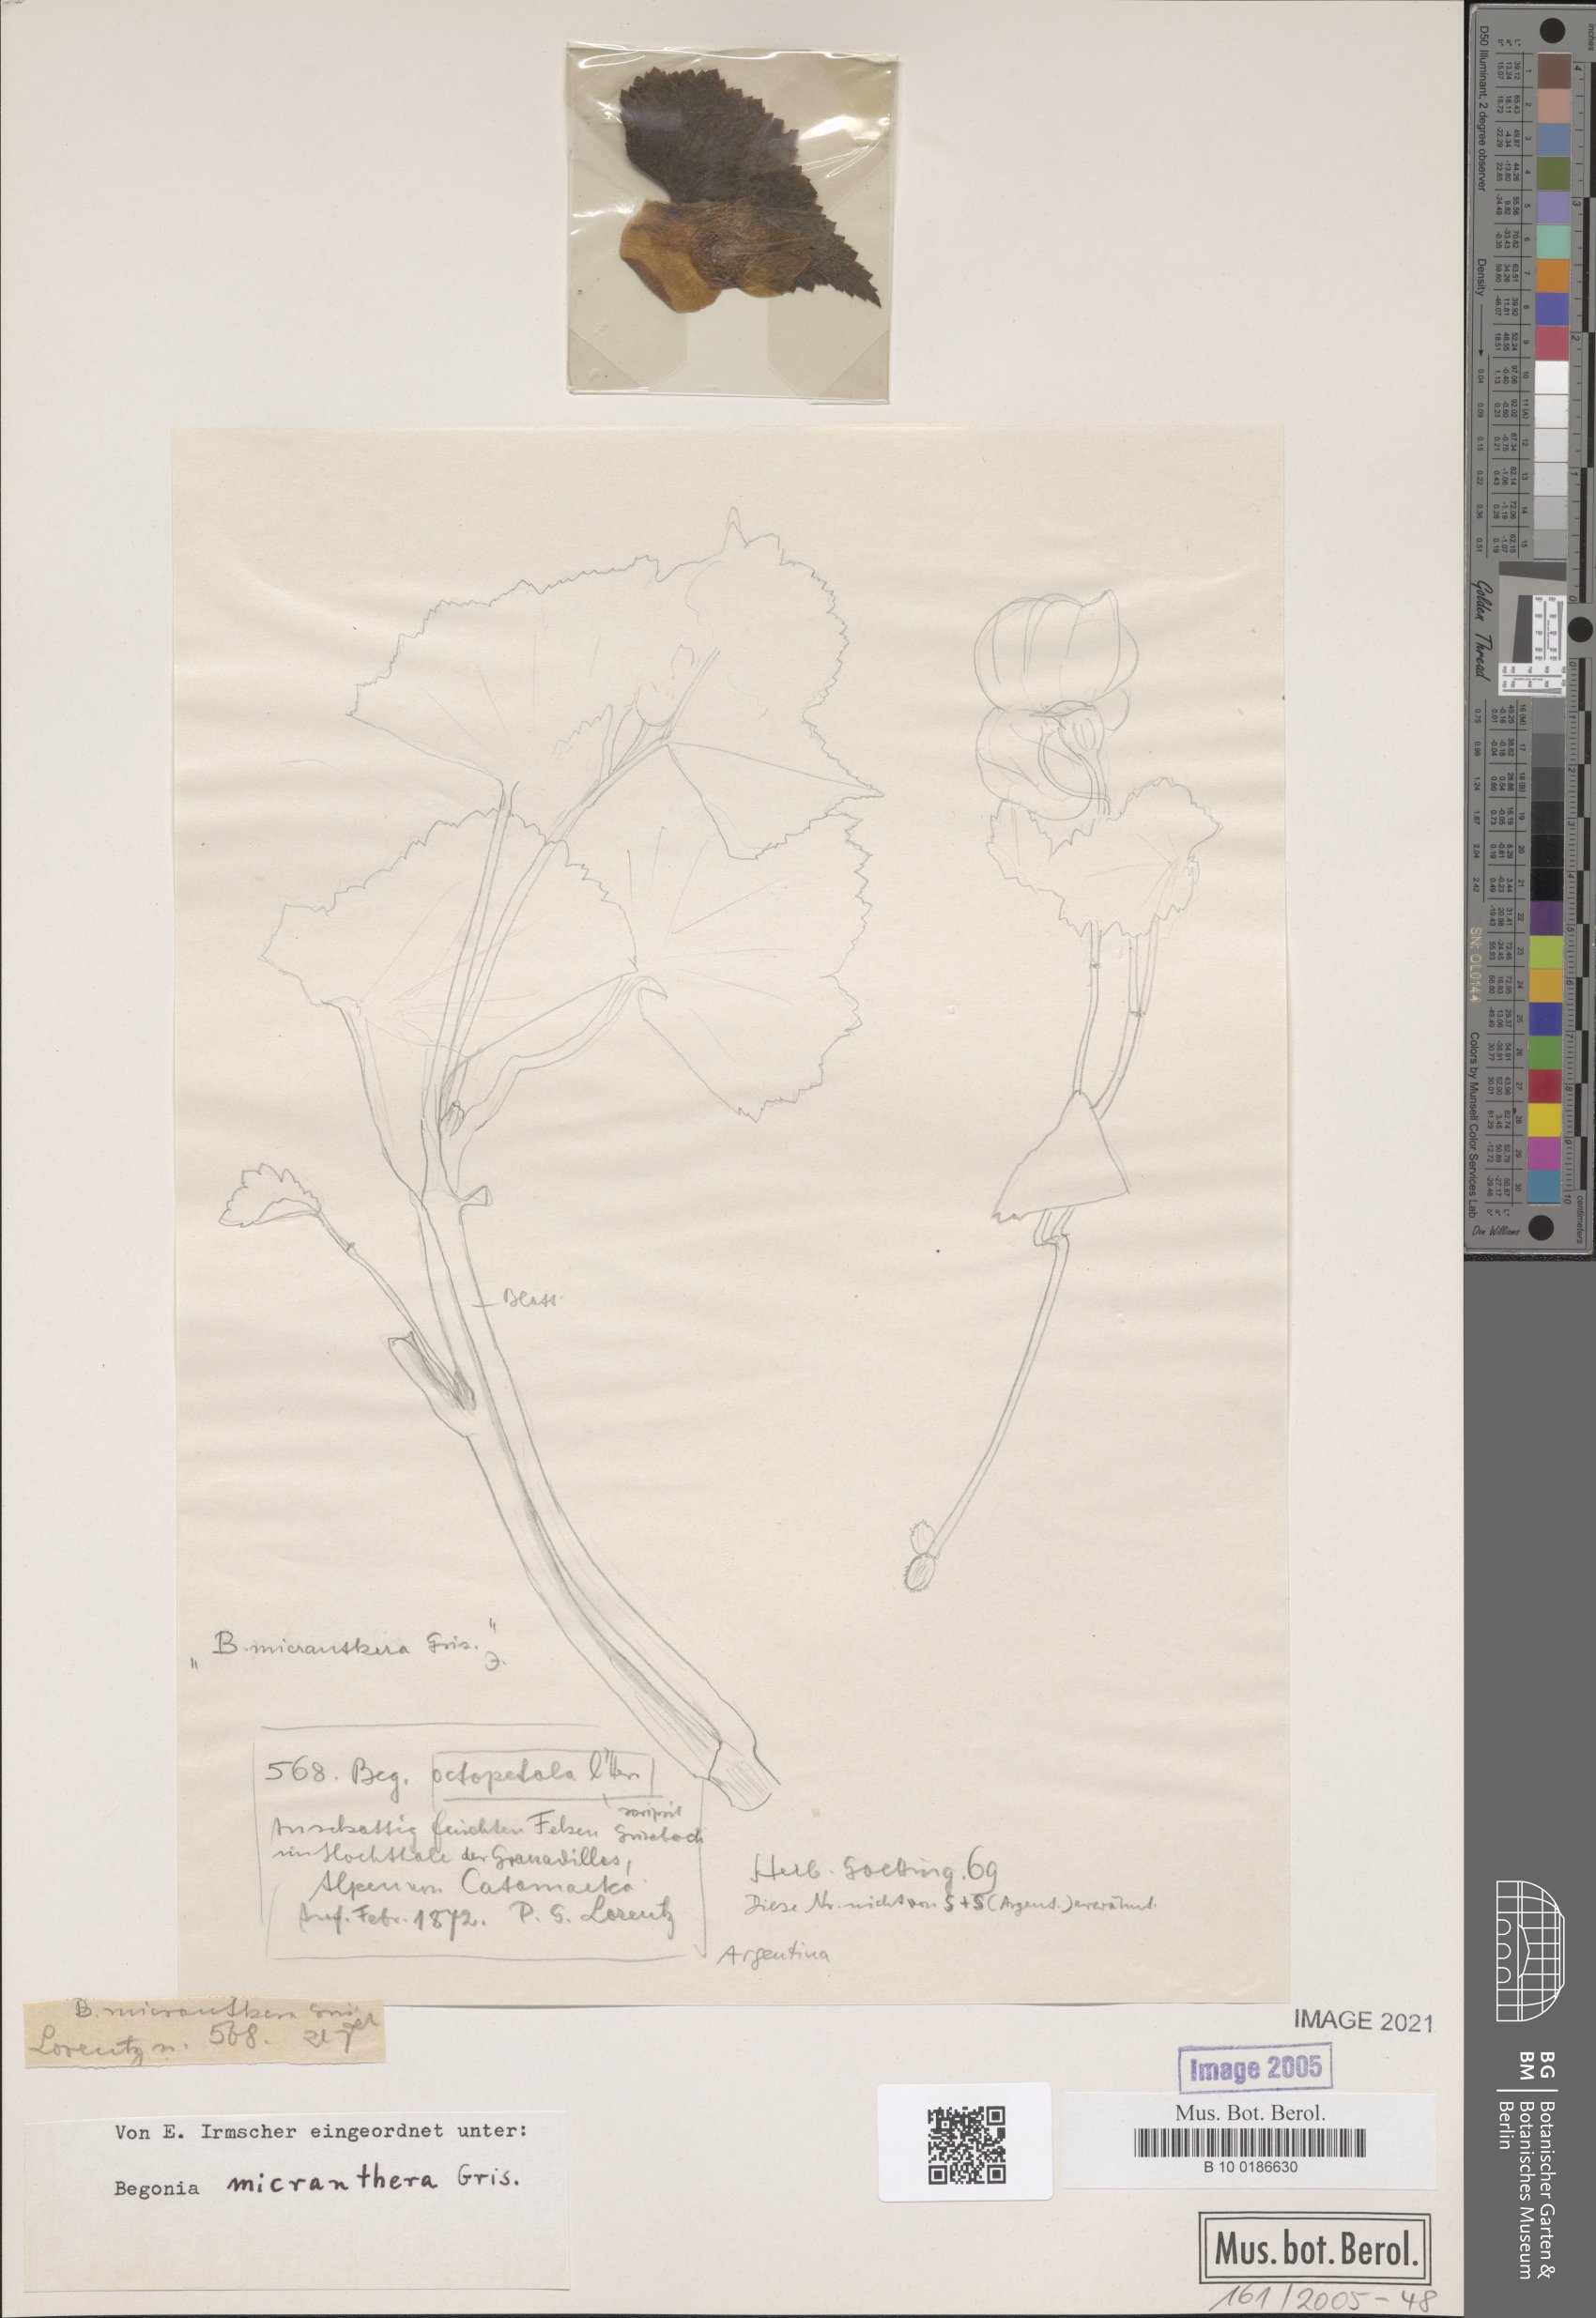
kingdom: Plantae
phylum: Tracheophyta
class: Magnoliopsida
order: Cucurbitales
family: Begoniaceae
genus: Begonia
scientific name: Begonia micranthera
